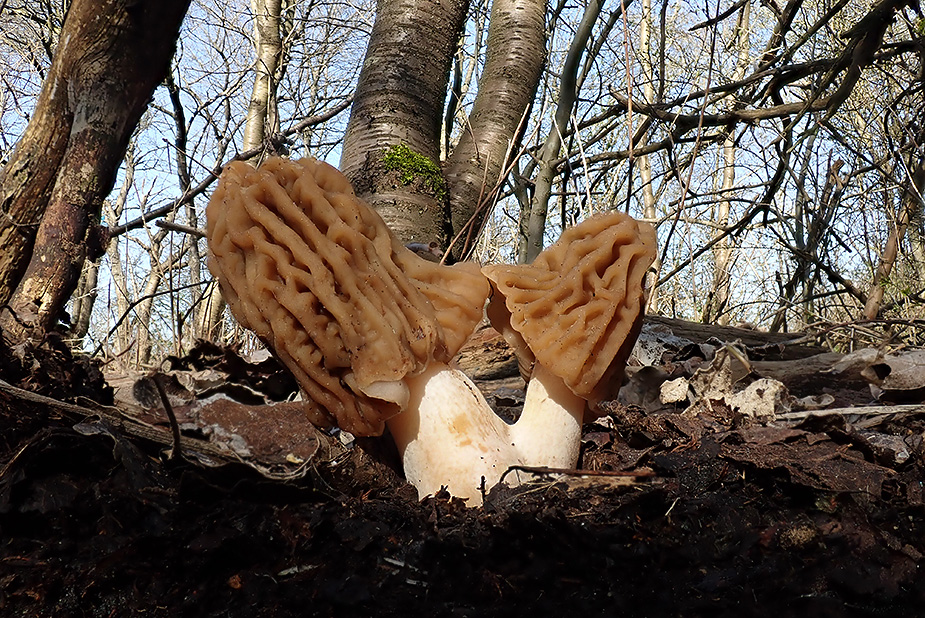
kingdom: Fungi
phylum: Ascomycota
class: Pezizomycetes
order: Pezizales
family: Morchellaceae
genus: Verpa
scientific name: Verpa bohemica
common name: rynket klokkemorkel
